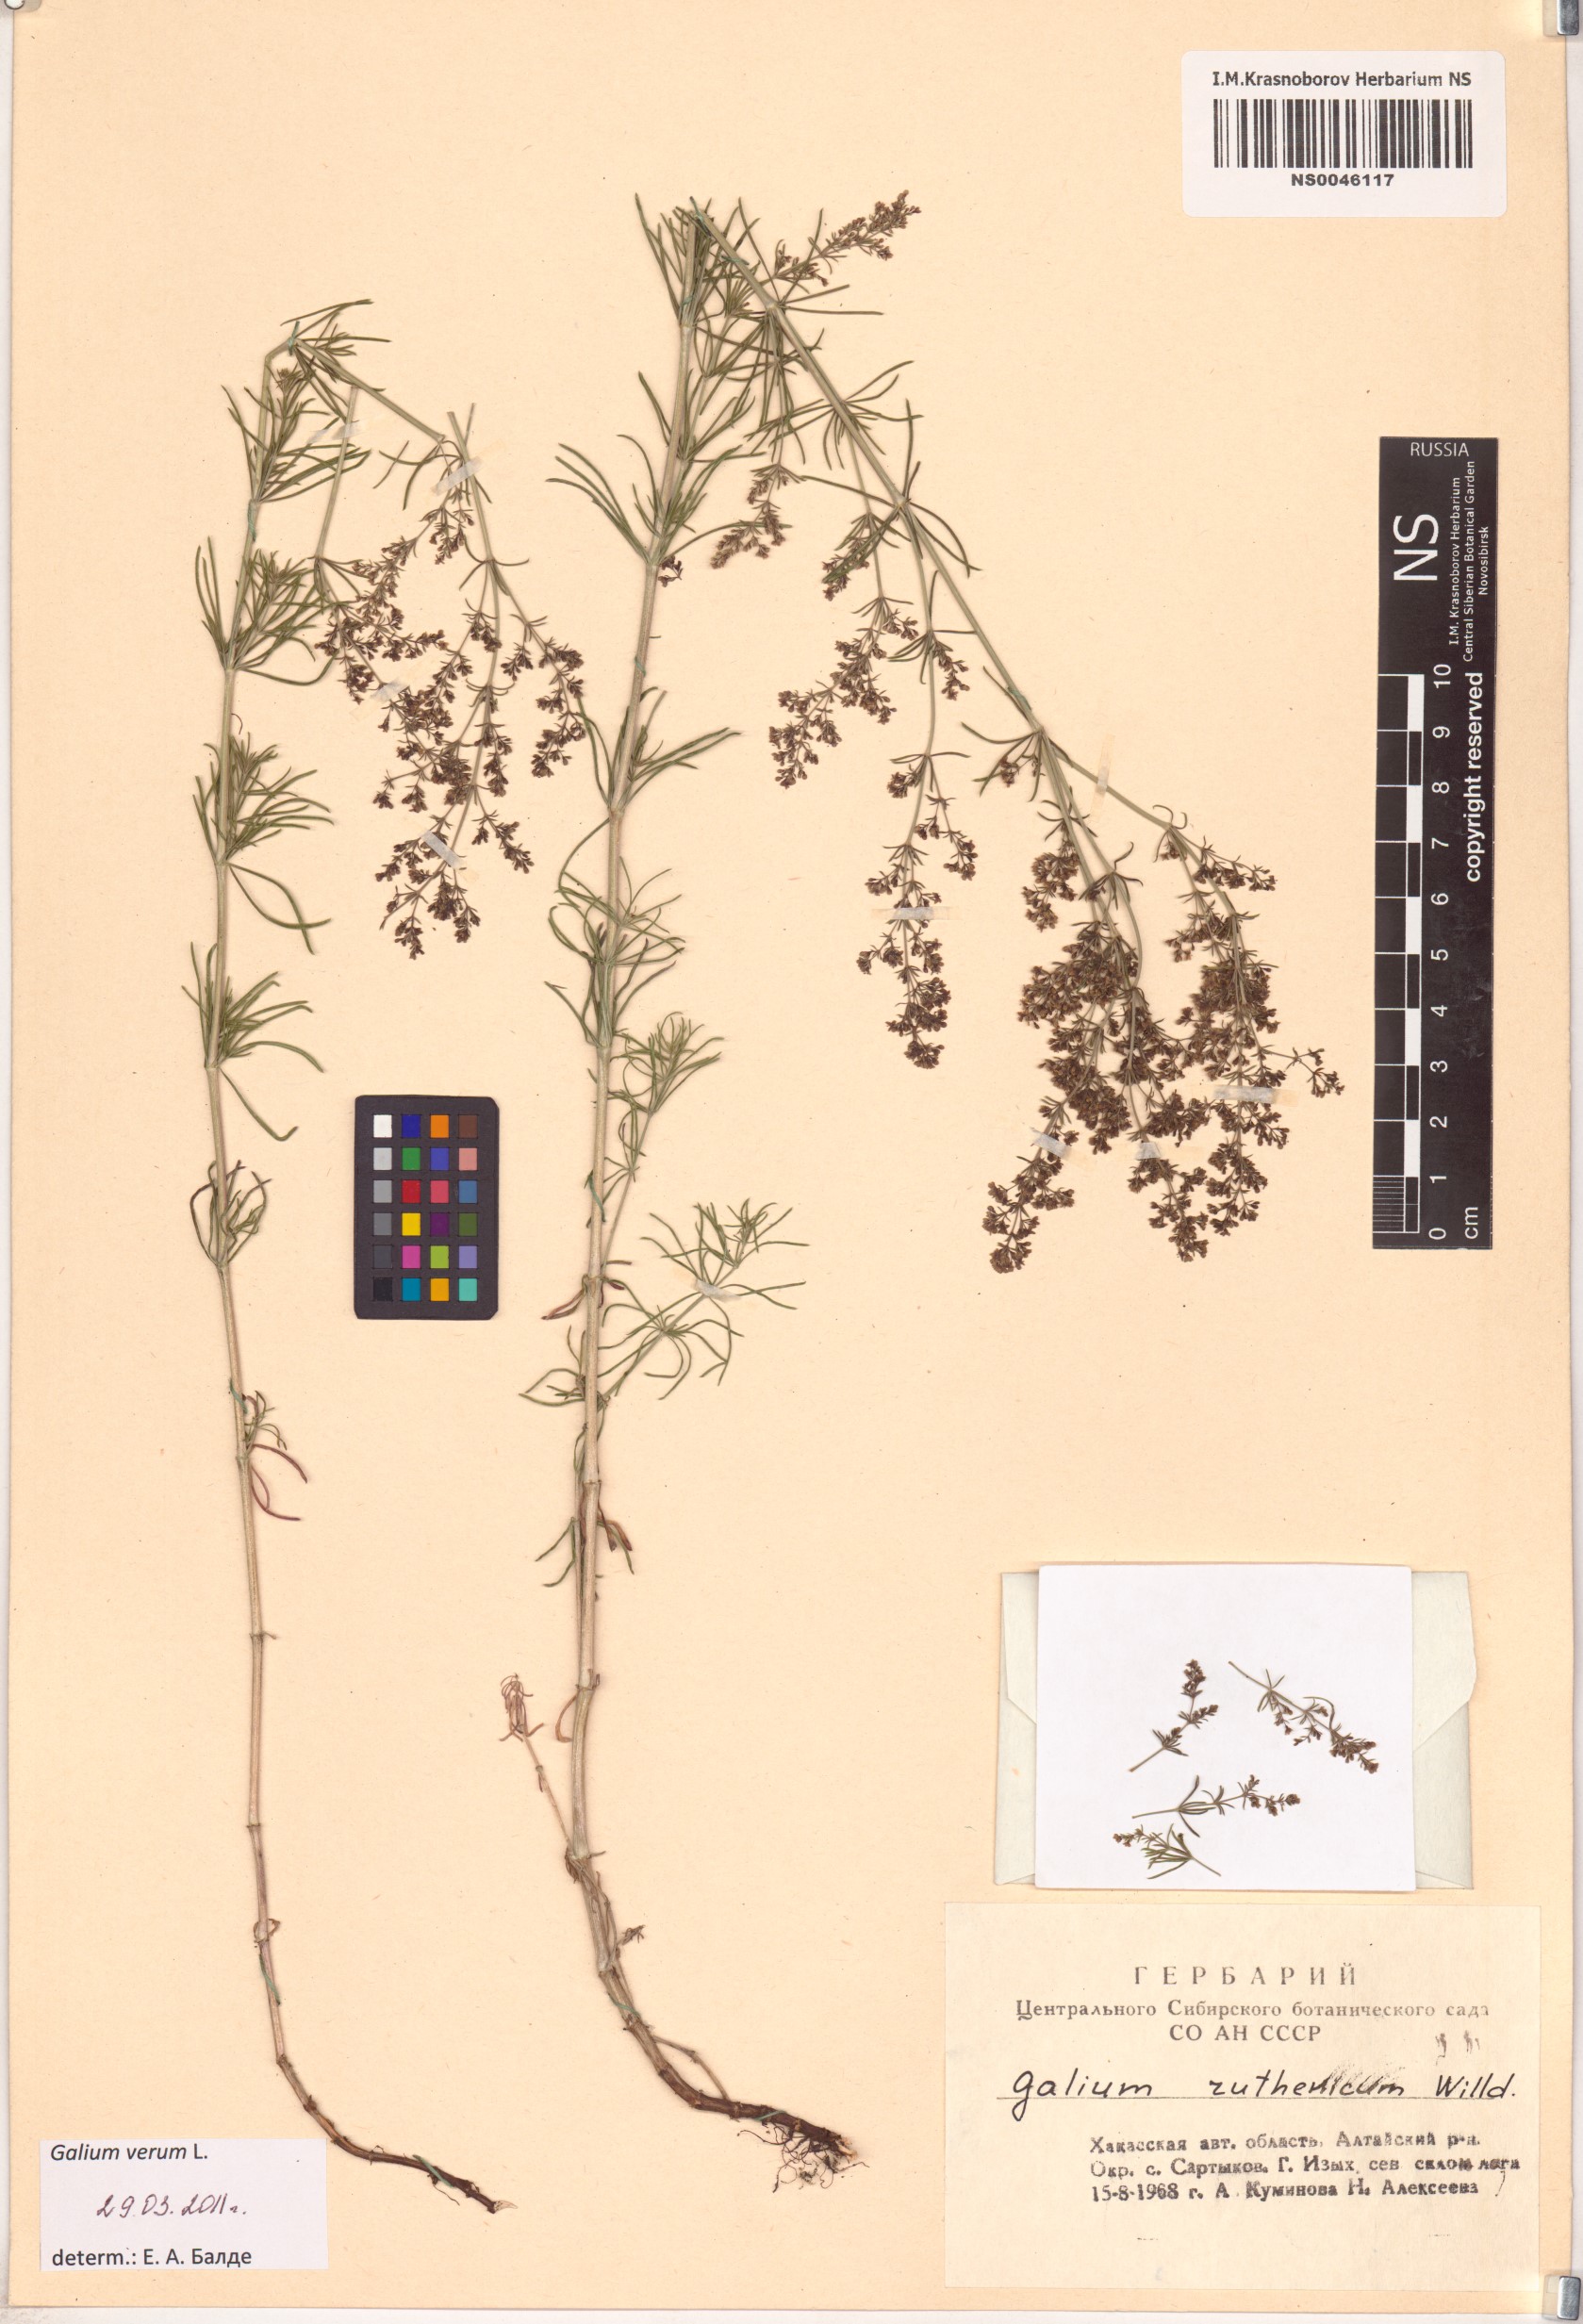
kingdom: Plantae
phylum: Tracheophyta
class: Magnoliopsida
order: Gentianales
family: Rubiaceae
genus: Galium
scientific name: Galium verum
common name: Lady's bedstraw
